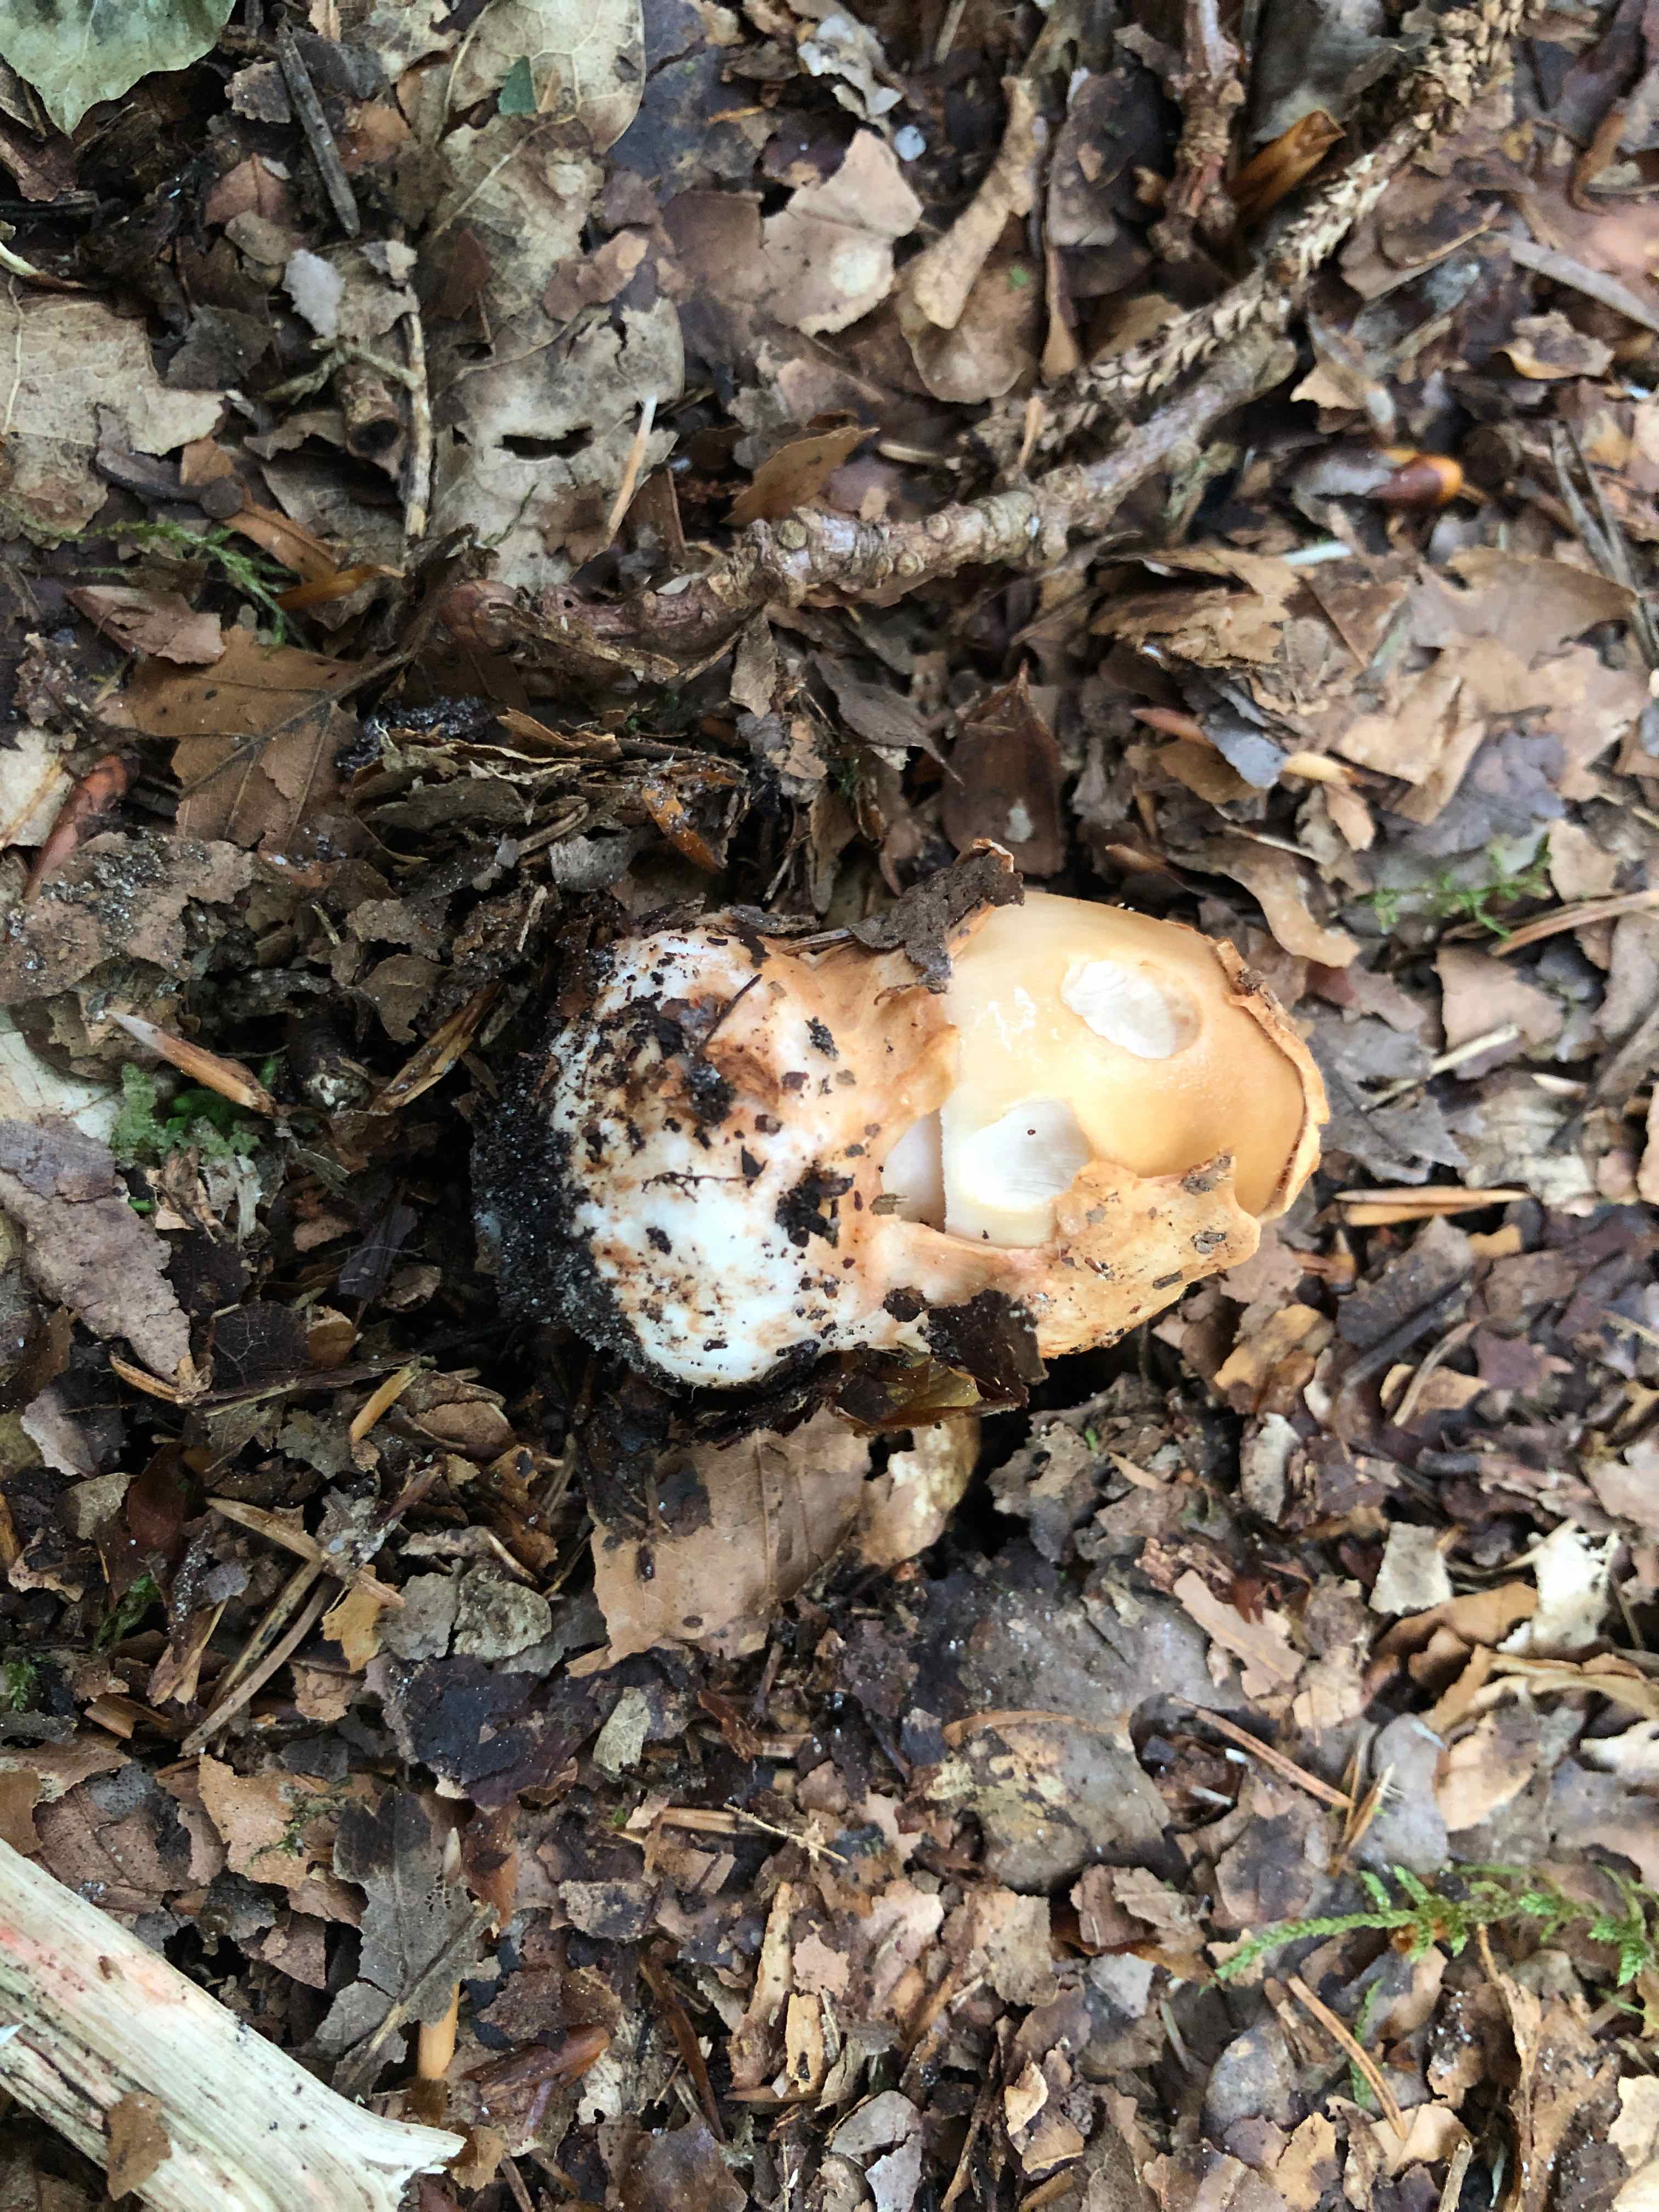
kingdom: Fungi
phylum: Basidiomycota
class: Agaricomycetes
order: Agaricales
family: Amanitaceae
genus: Amanita
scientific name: Amanita fulva
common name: brun kam-fluesvamp
